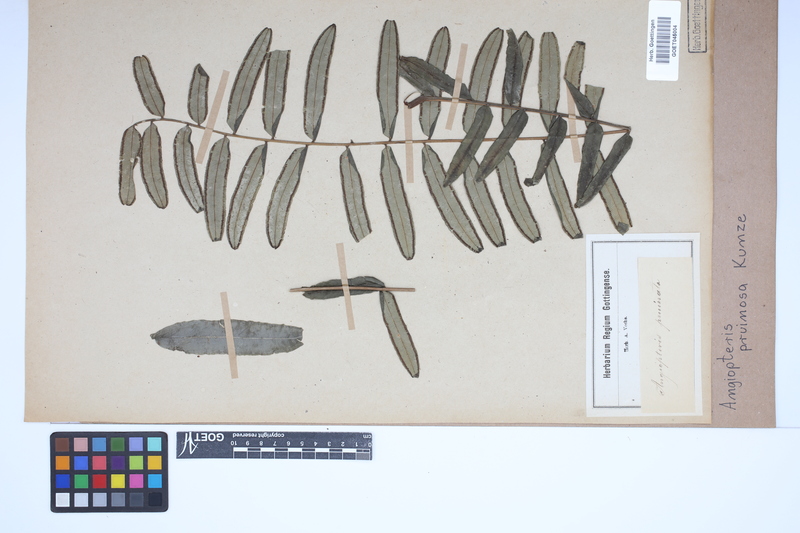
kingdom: Plantae
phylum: Tracheophyta
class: Polypodiopsida
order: Marattiales
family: Marattiaceae
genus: Angiopteris
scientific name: Angiopteris pruinosa
